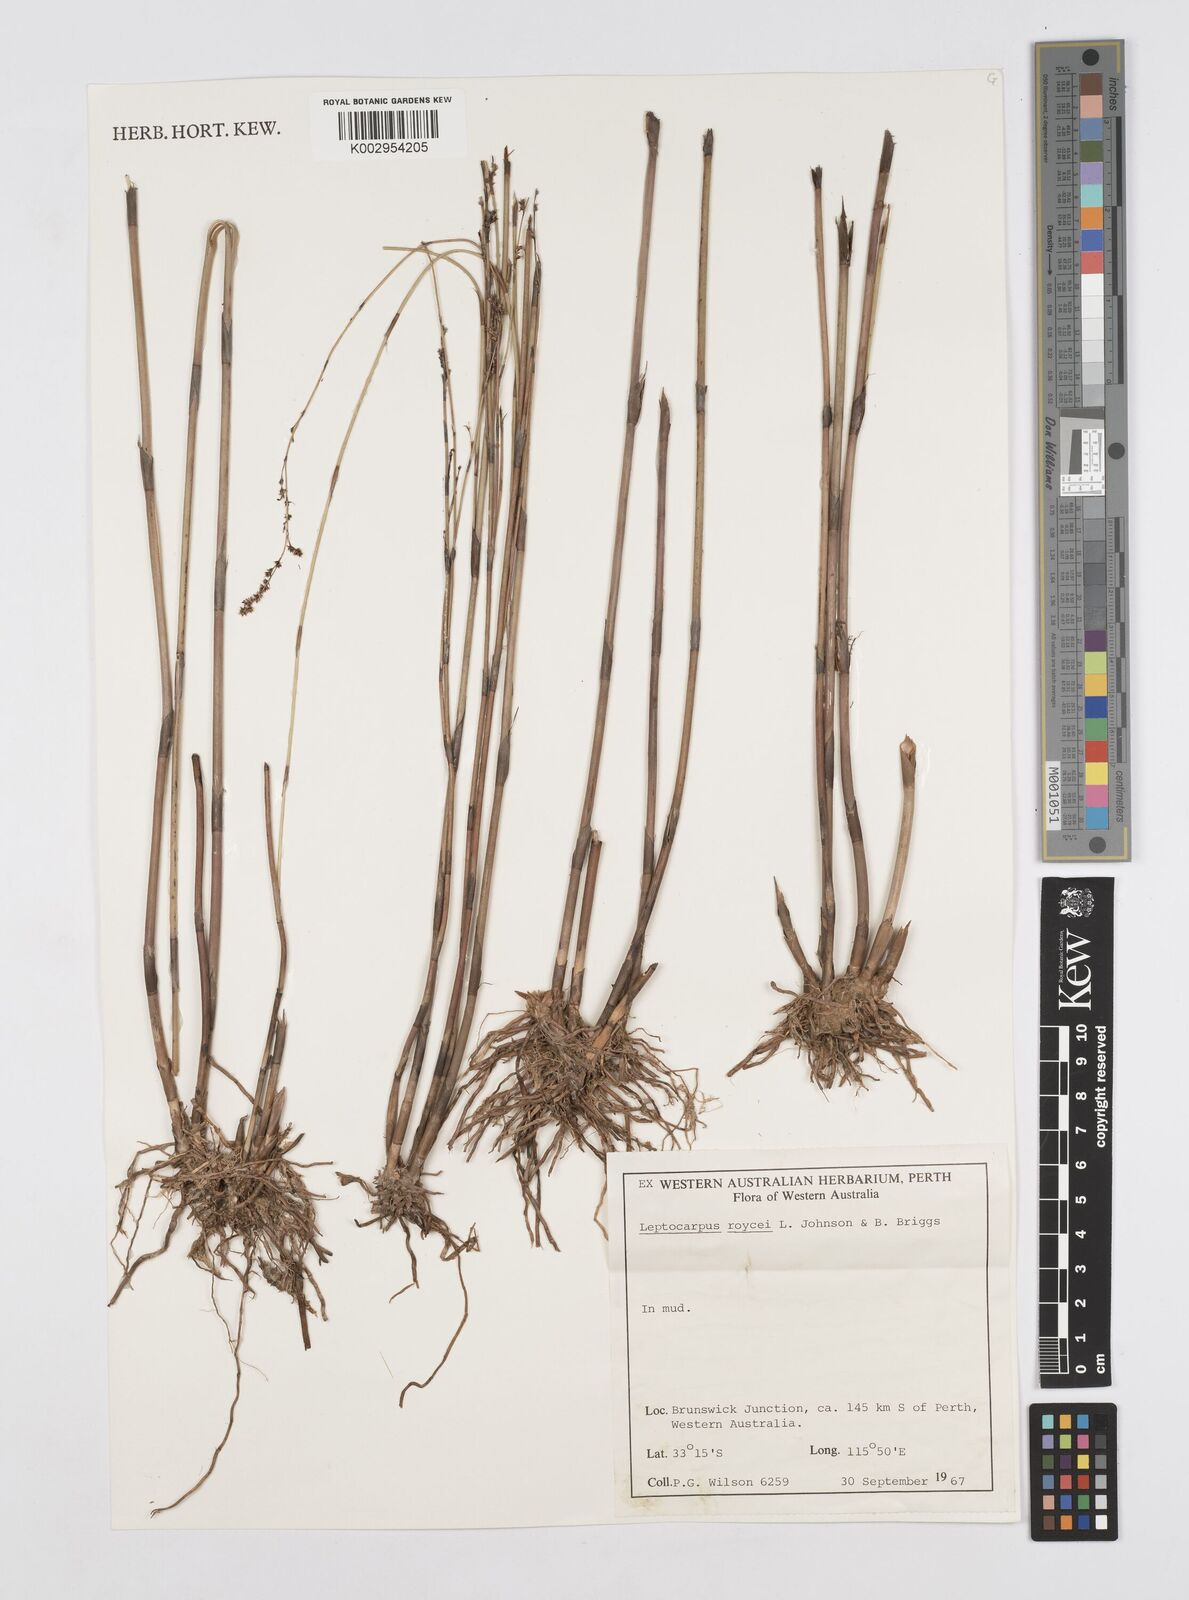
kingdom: Plantae
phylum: Tracheophyta
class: Liliopsida
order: Poales
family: Restionaceae
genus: Leptocarpus
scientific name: Leptocarpus roycei
